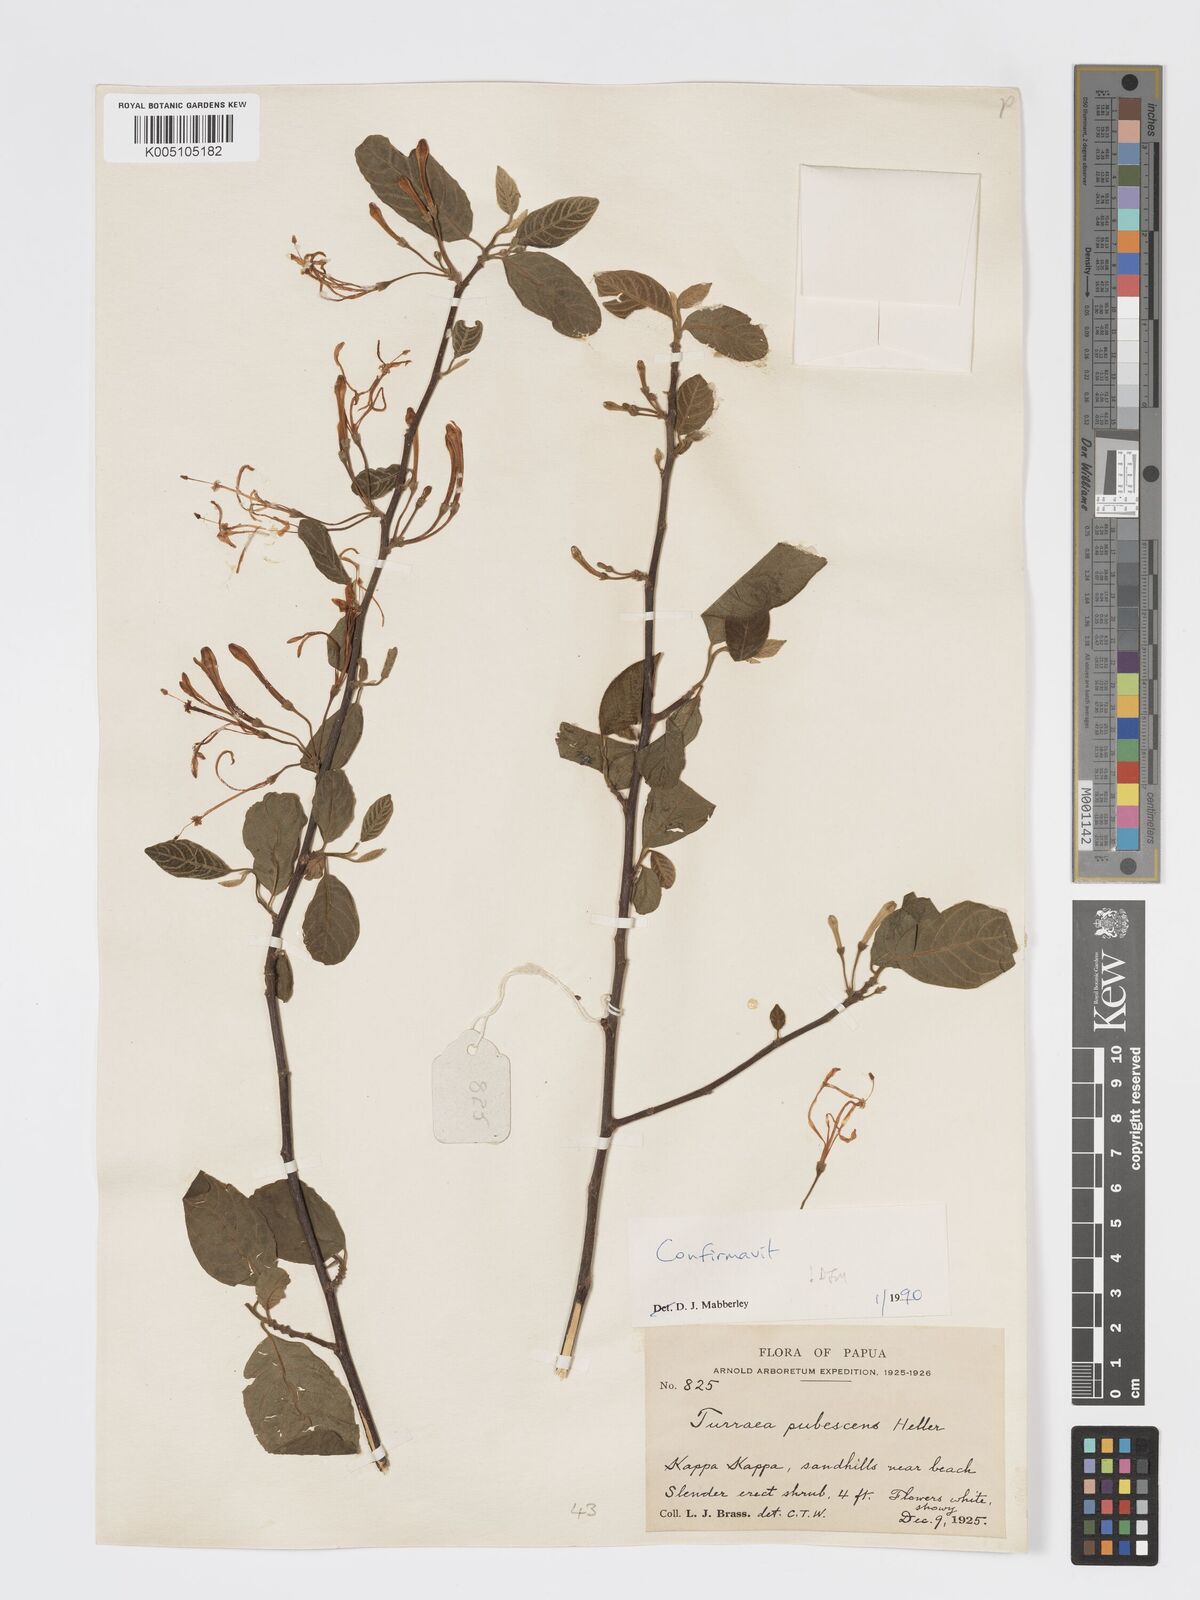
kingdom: Plantae
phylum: Tracheophyta
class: Magnoliopsida
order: Sapindales
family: Meliaceae
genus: Turraea
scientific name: Turraea
